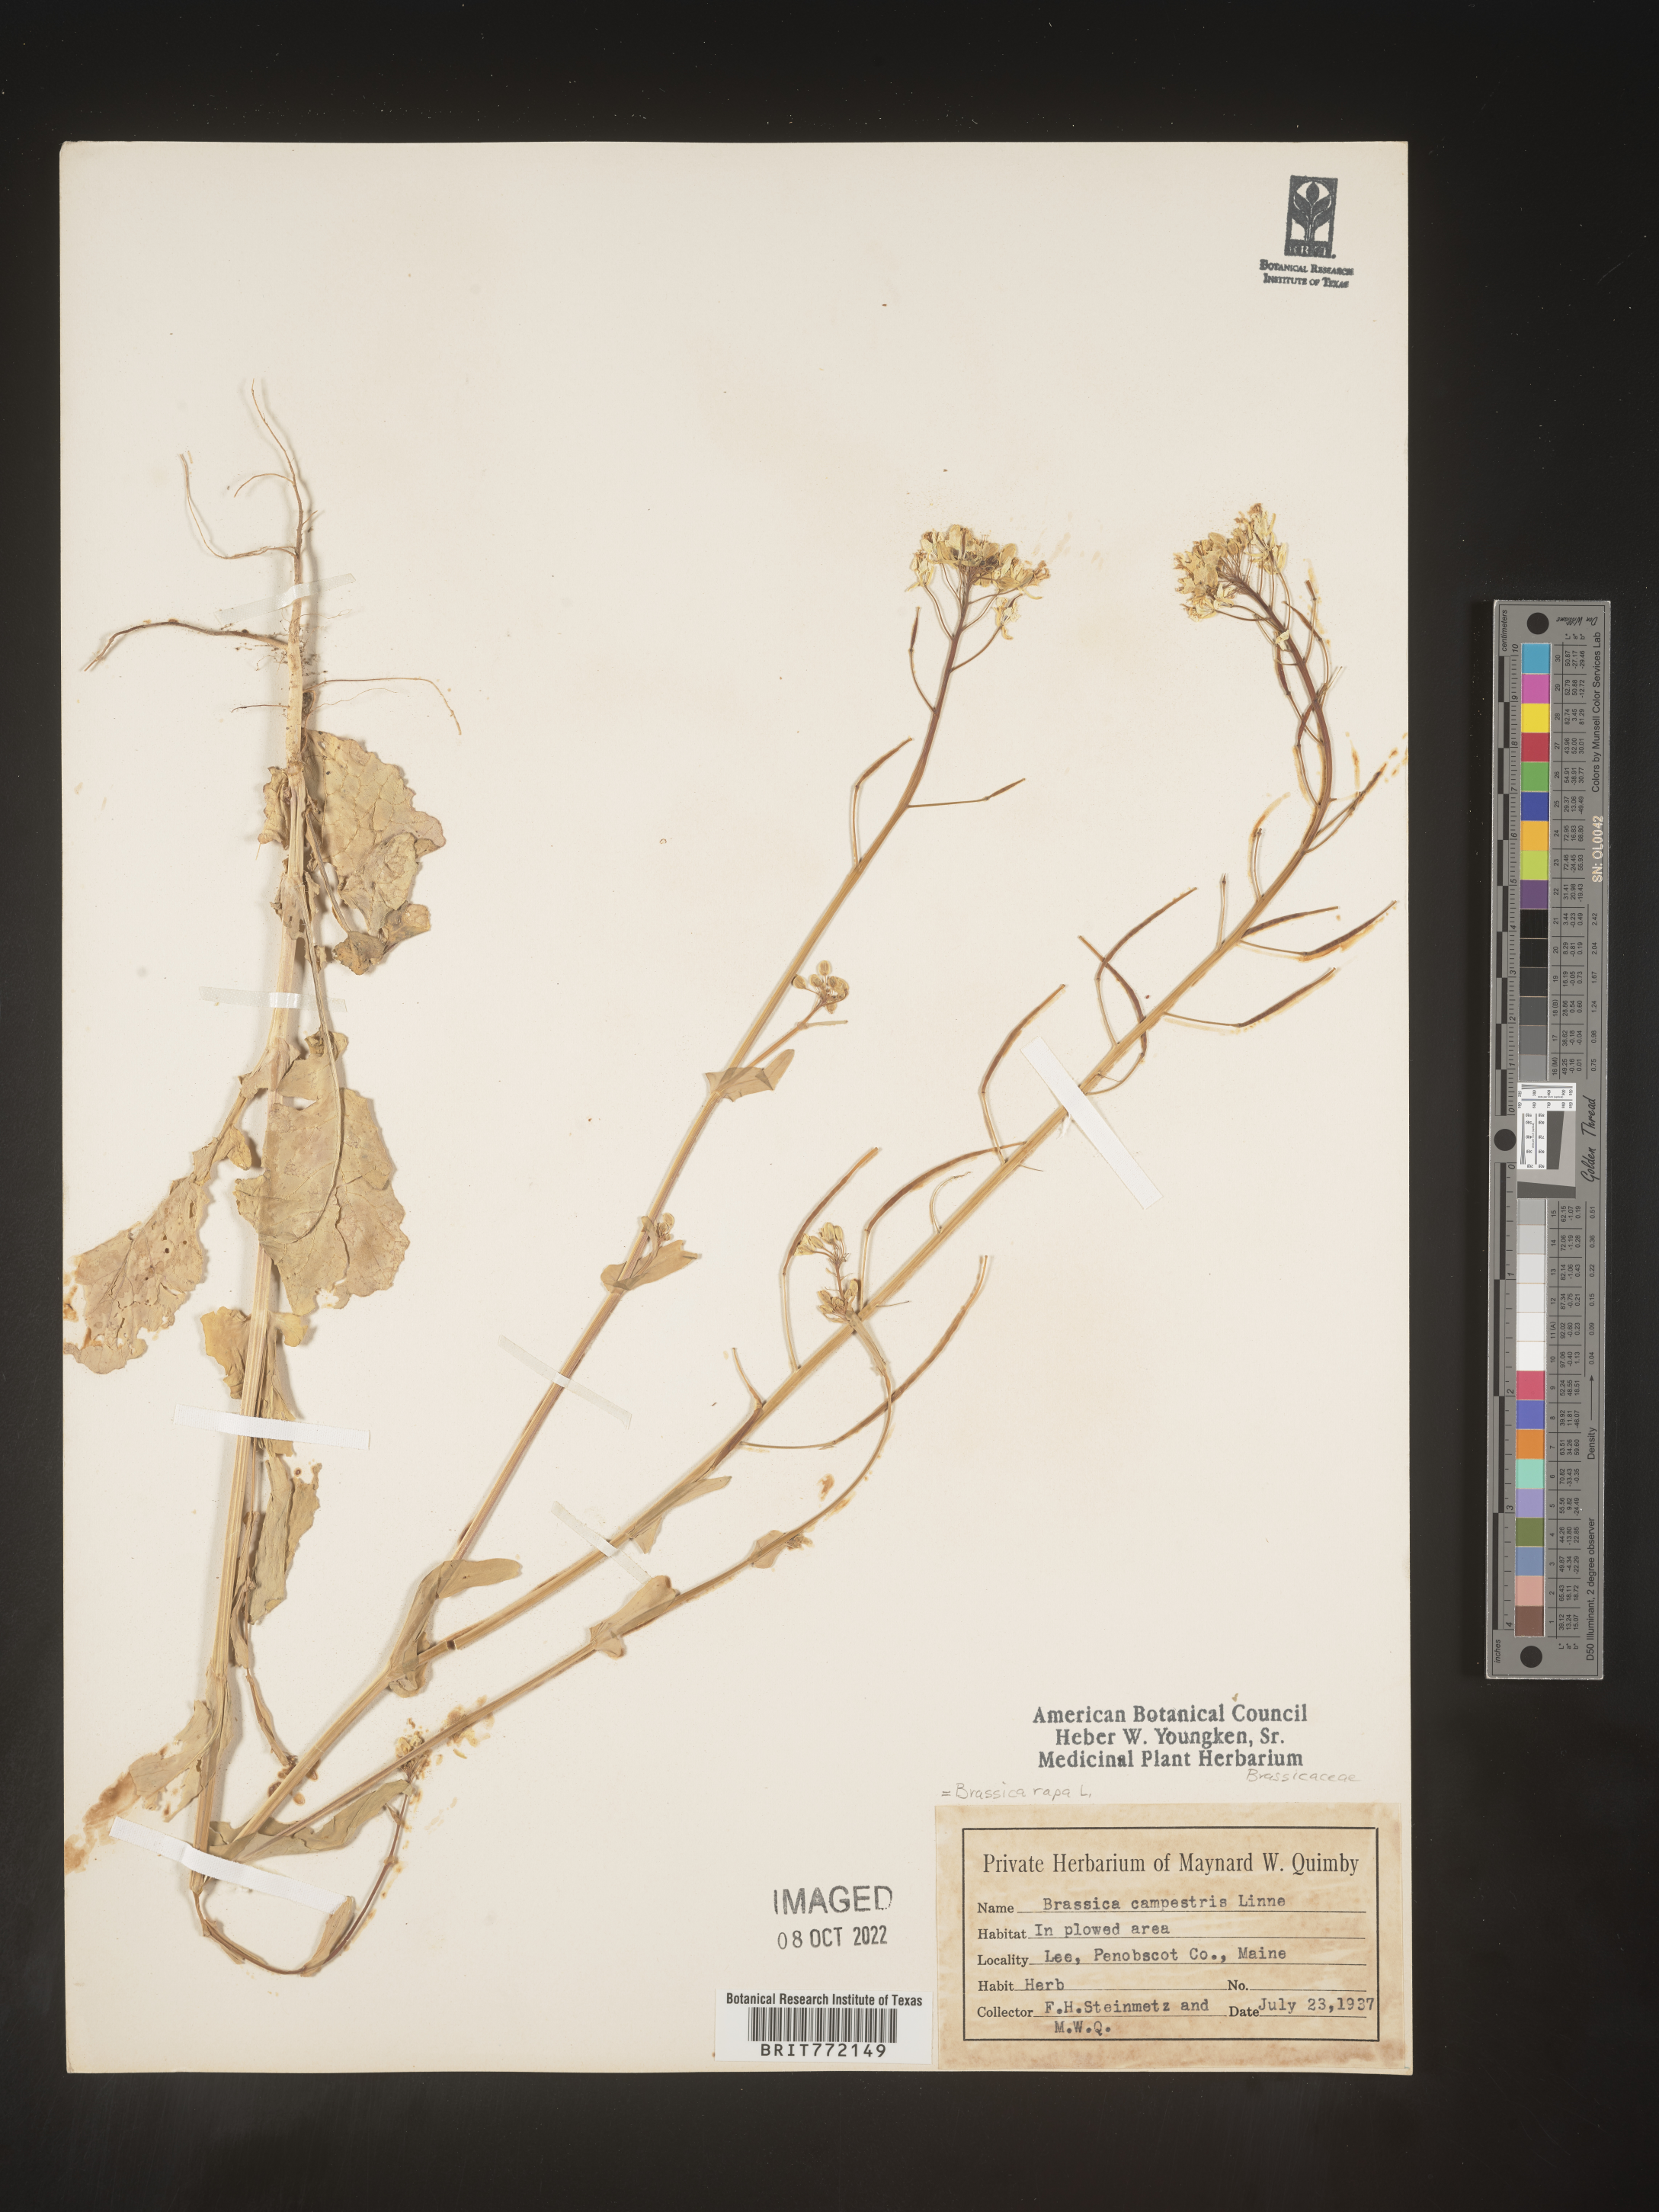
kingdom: Plantae
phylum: Tracheophyta
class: Magnoliopsida
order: Brassicales
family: Brassicaceae
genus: Brassica
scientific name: Brassica rapa
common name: Field mustard
